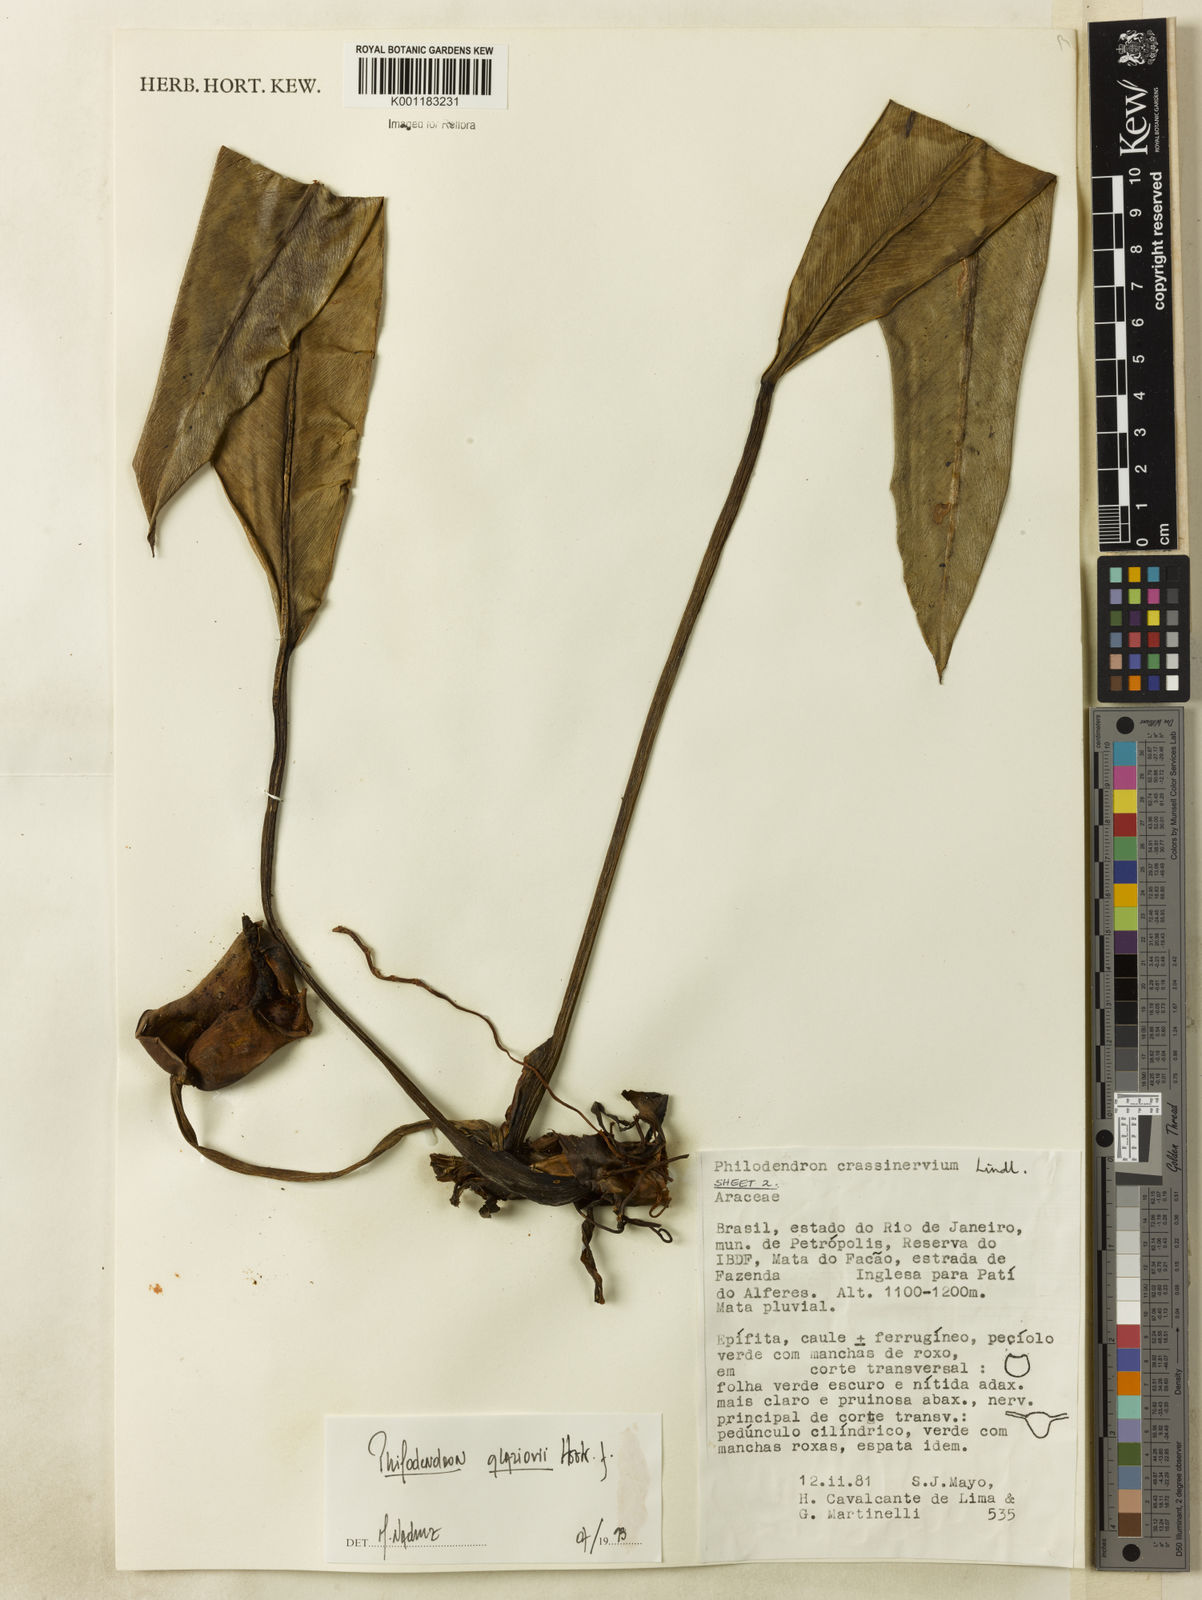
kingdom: Plantae
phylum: Tracheophyta
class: Liliopsida
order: Alismatales
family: Araceae
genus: Philodendron
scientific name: Philodendron glaziovii
